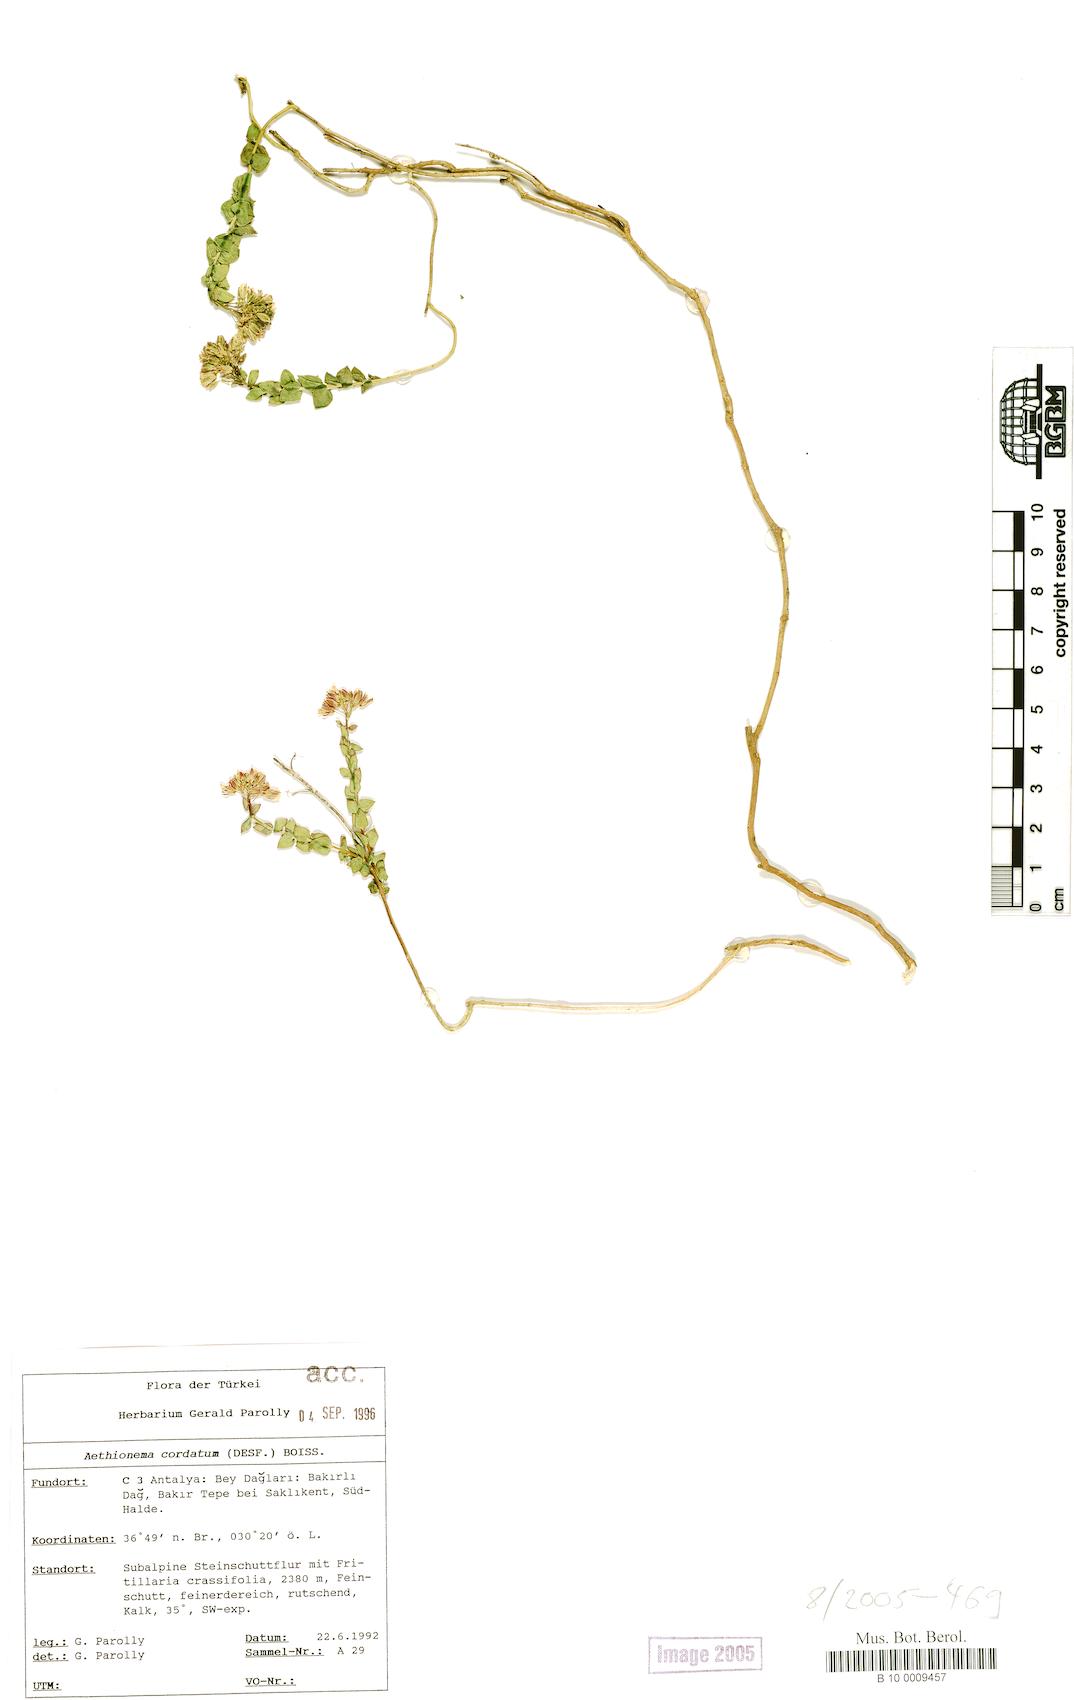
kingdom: Plantae
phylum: Tracheophyta
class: Magnoliopsida
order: Brassicales
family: Brassicaceae
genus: Aethionema
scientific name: Aethionema cordatum
